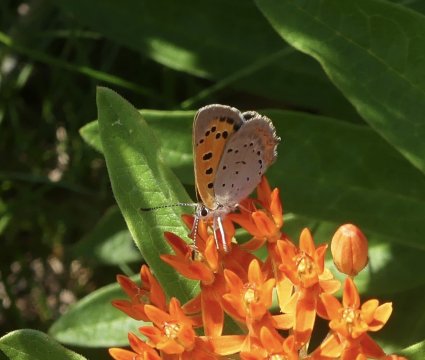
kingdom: Animalia
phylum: Arthropoda
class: Insecta
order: Lepidoptera
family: Lycaenidae
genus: Lycaena
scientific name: Lycaena phlaeas
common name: American Copper
